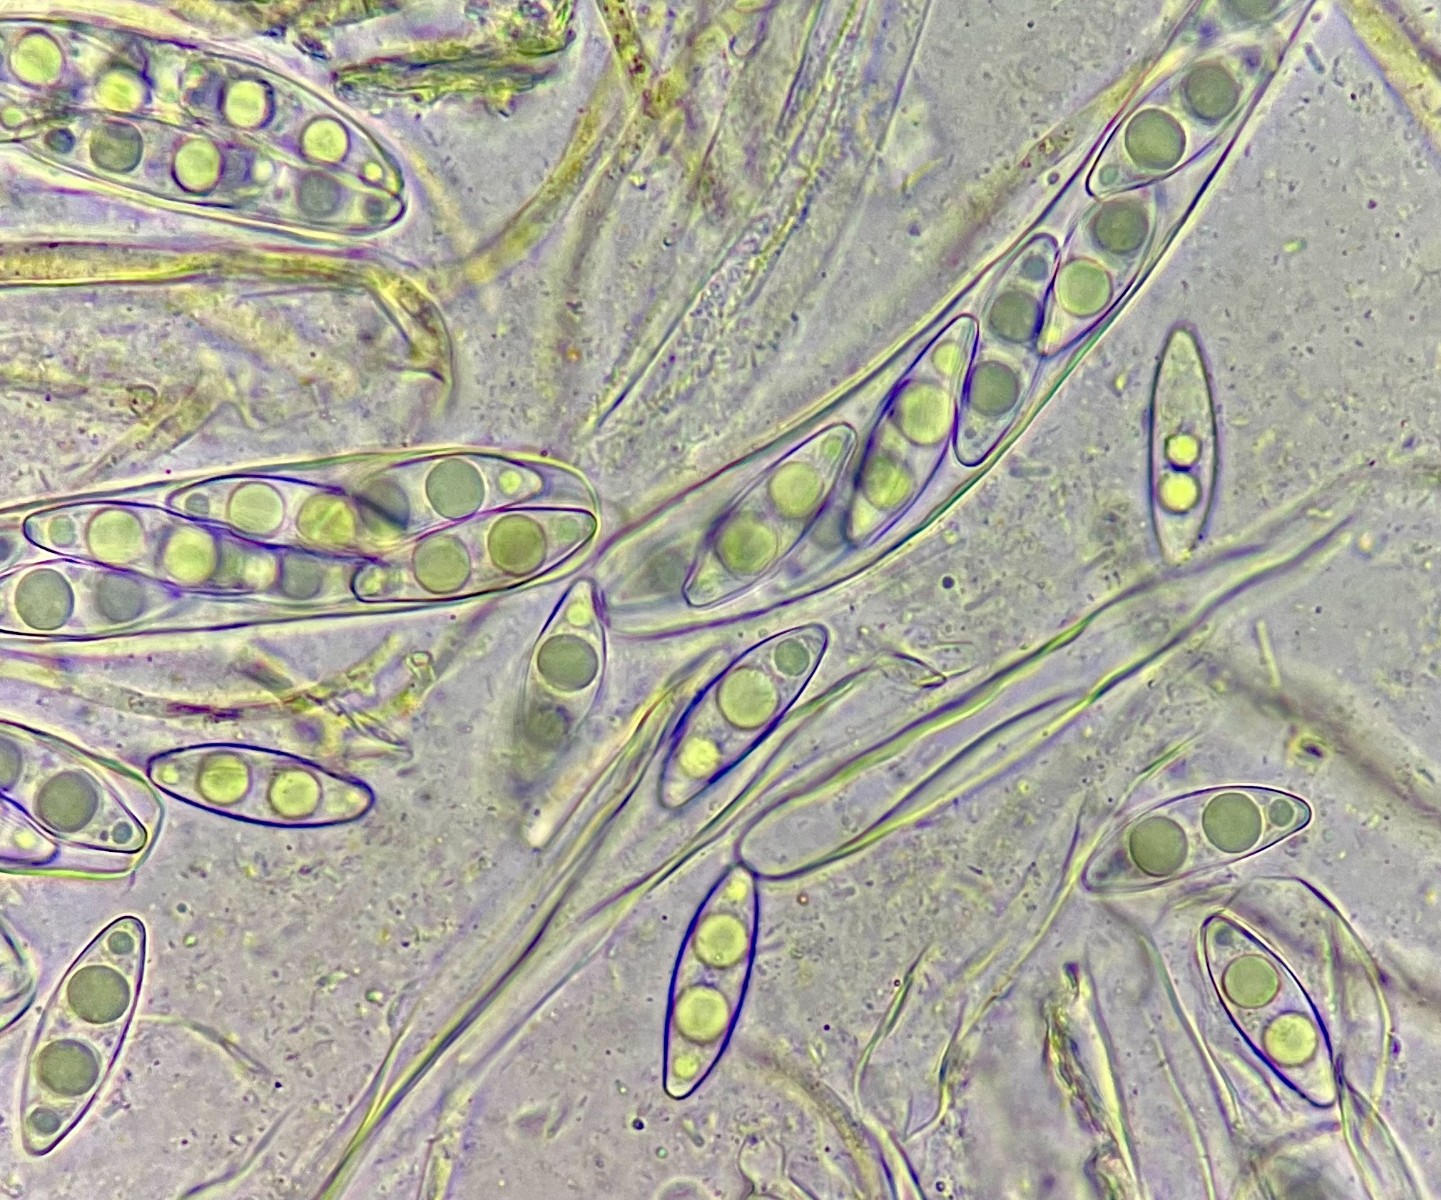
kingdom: Fungi
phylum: Ascomycota
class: Pezizomycetes
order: Pezizales
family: Pyronemataceae
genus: Octospora
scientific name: Octospora coccinea
